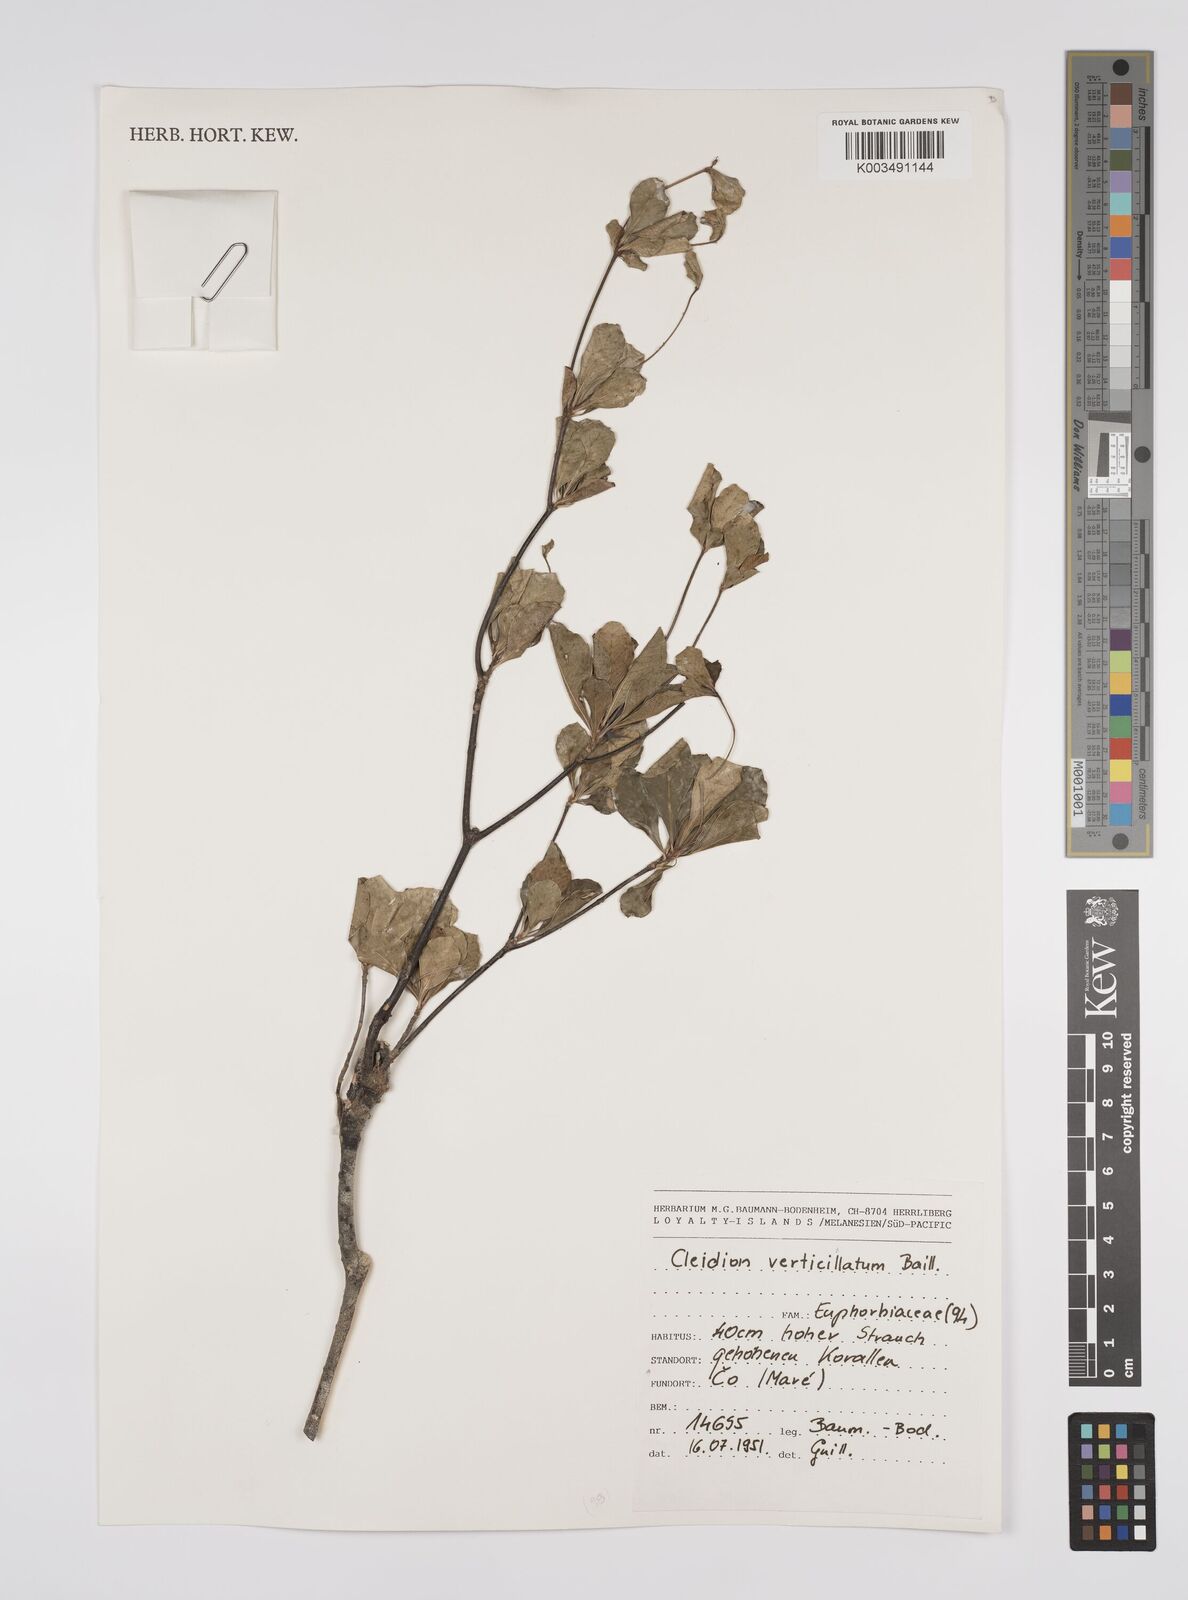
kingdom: Plantae
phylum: Tracheophyta
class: Magnoliopsida
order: Malpighiales
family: Euphorbiaceae
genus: Cleidion
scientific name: Cleidion verticillatum
